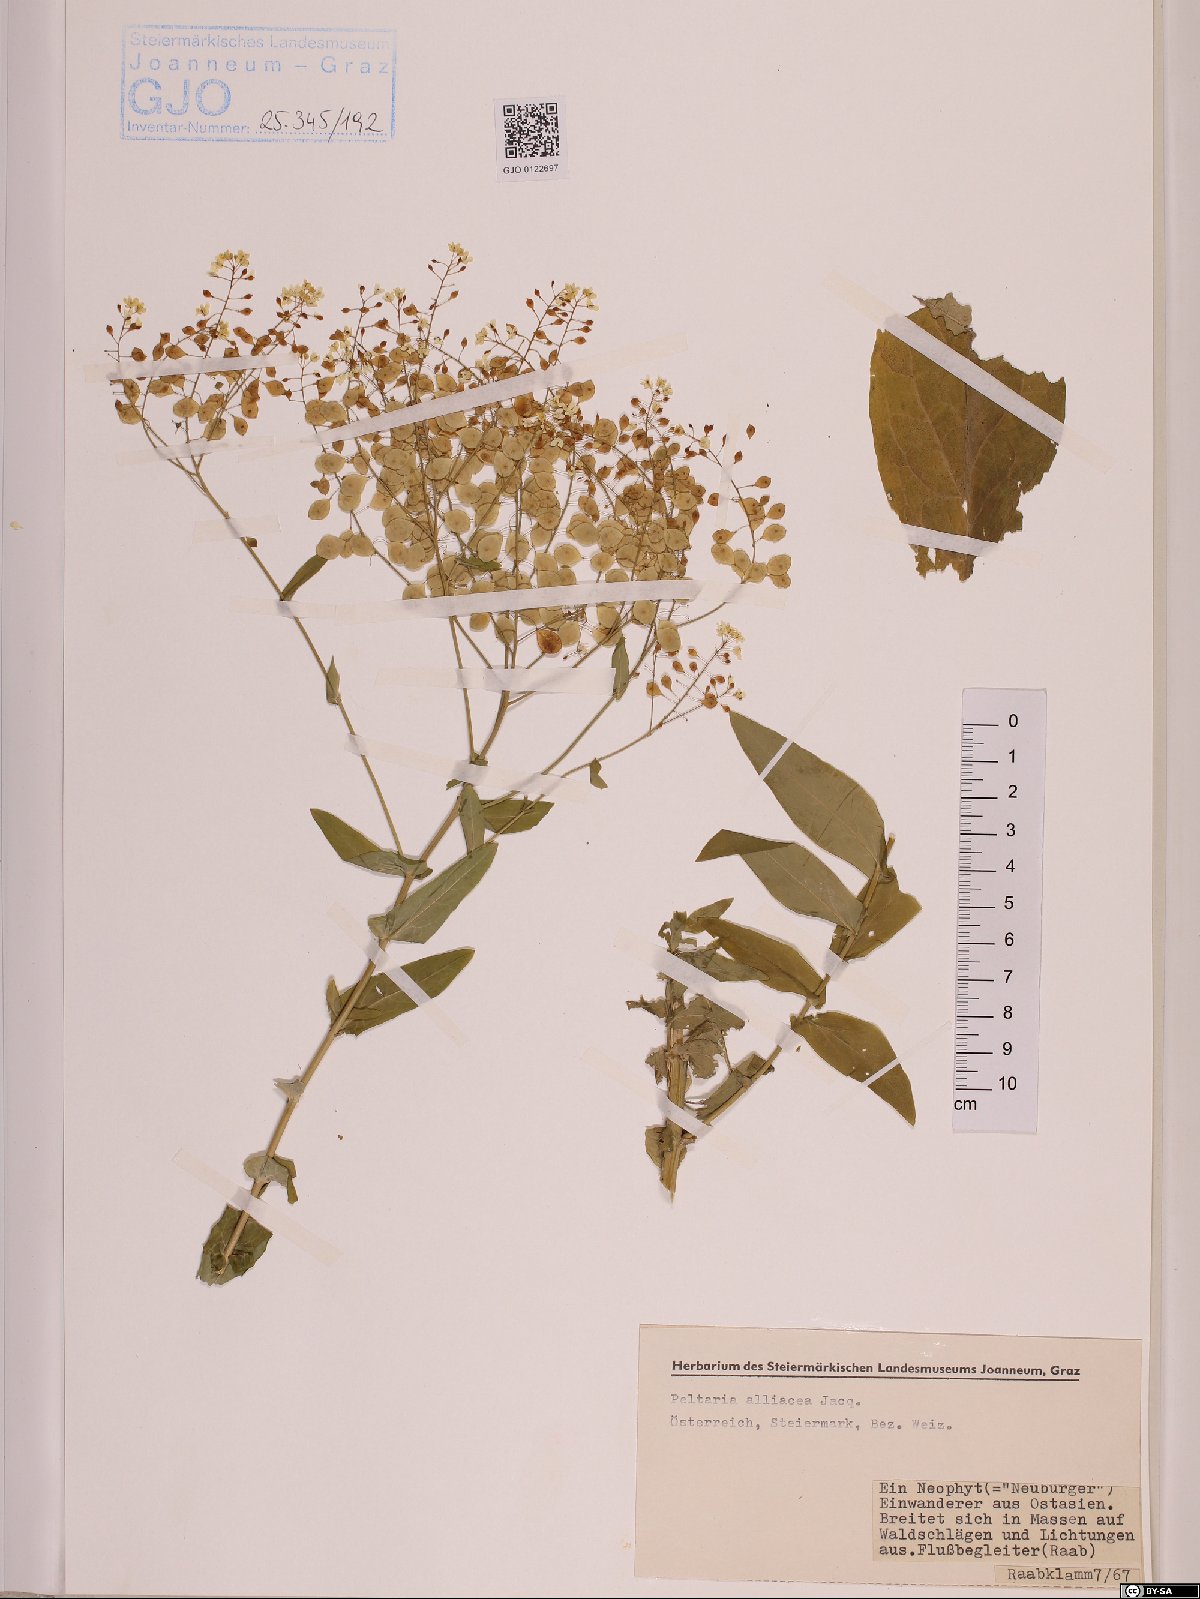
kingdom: Plantae
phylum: Tracheophyta
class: Magnoliopsida
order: Brassicales
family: Brassicaceae
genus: Peltaria
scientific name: Peltaria alliacea
